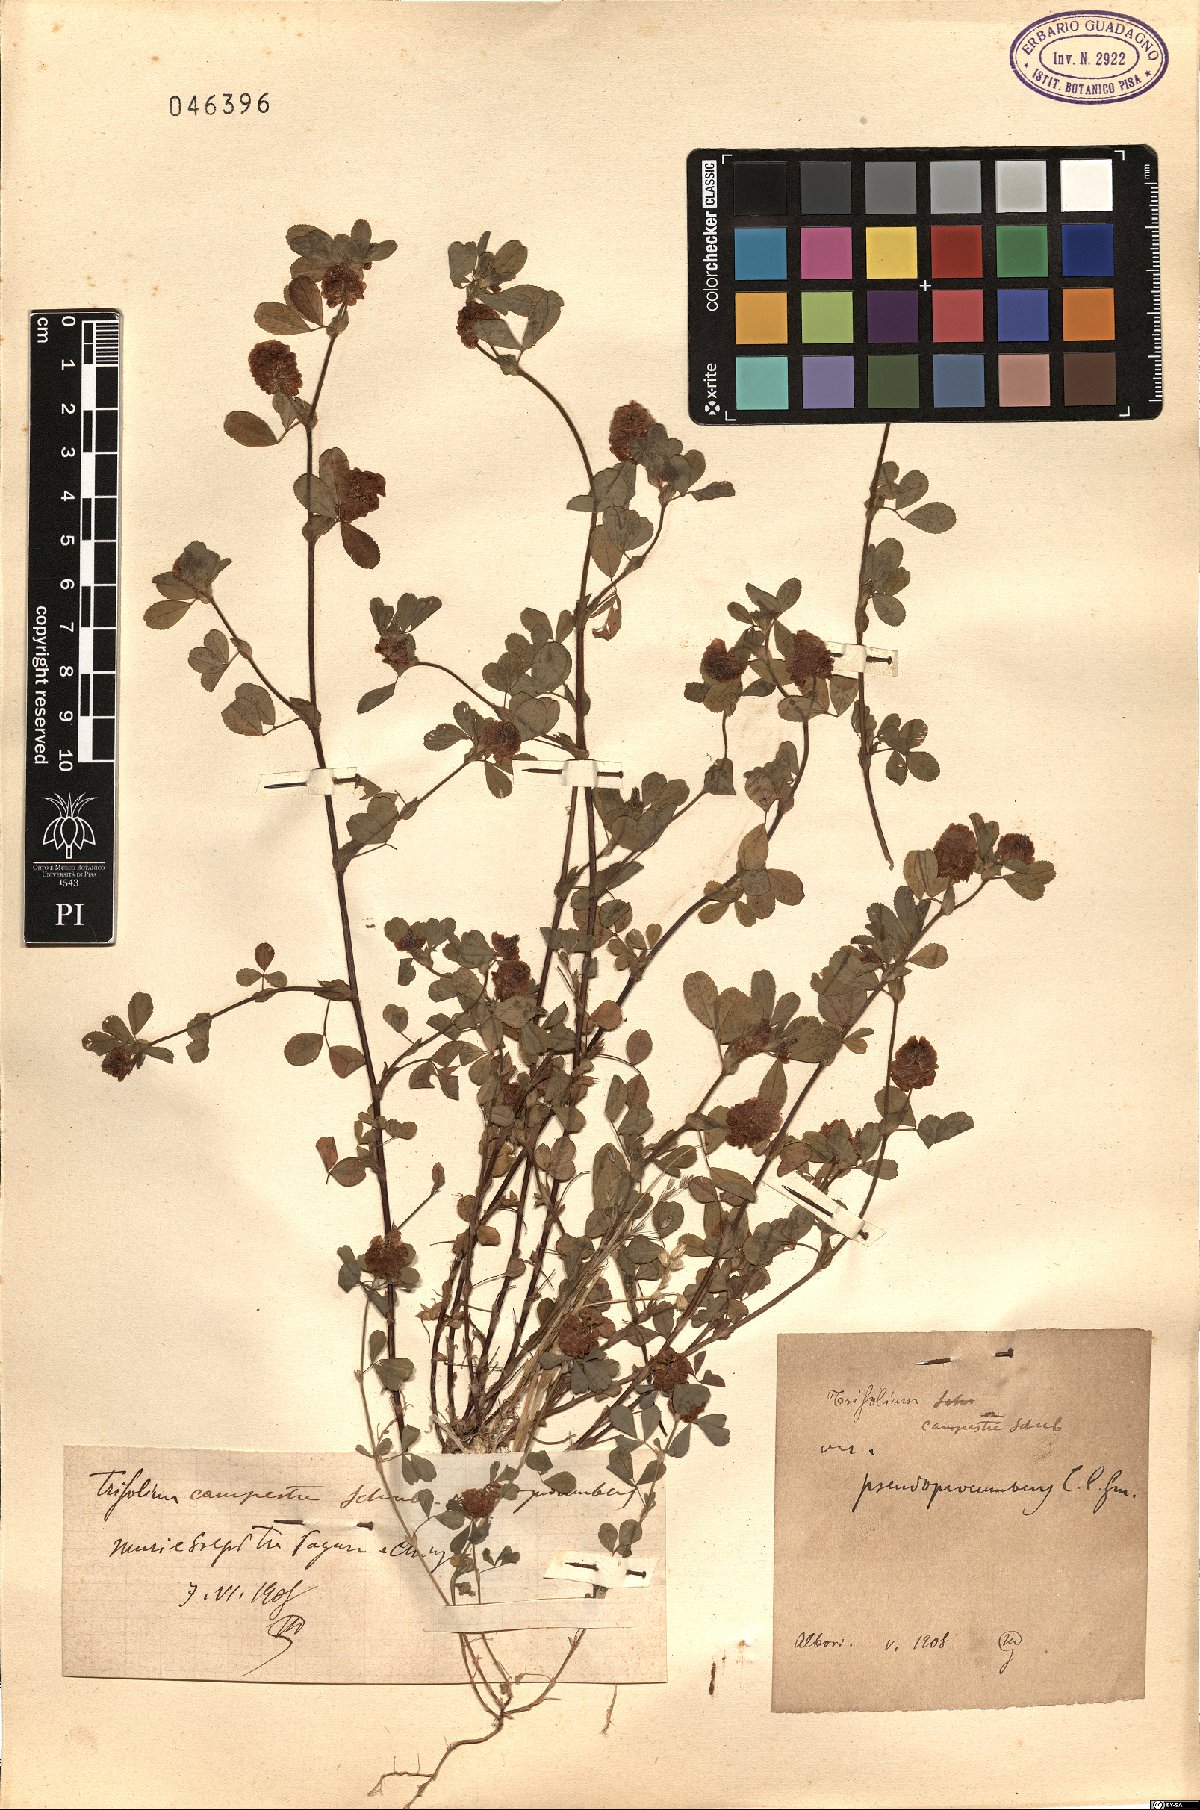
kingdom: Plantae
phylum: Tracheophyta
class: Magnoliopsida
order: Fabales
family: Fabaceae
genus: Trifolium
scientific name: Trifolium campestre
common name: Field clover
